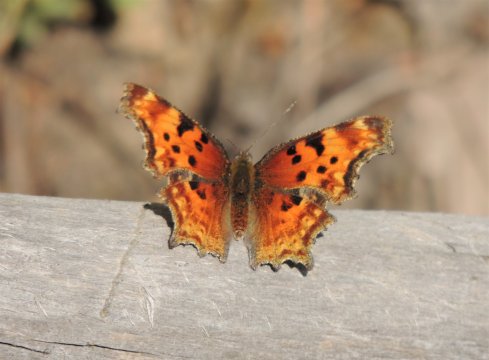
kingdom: Animalia
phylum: Arthropoda
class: Insecta
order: Lepidoptera
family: Nymphalidae
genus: Polygonia
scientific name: Polygonia gracilis
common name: Hoary Comma
